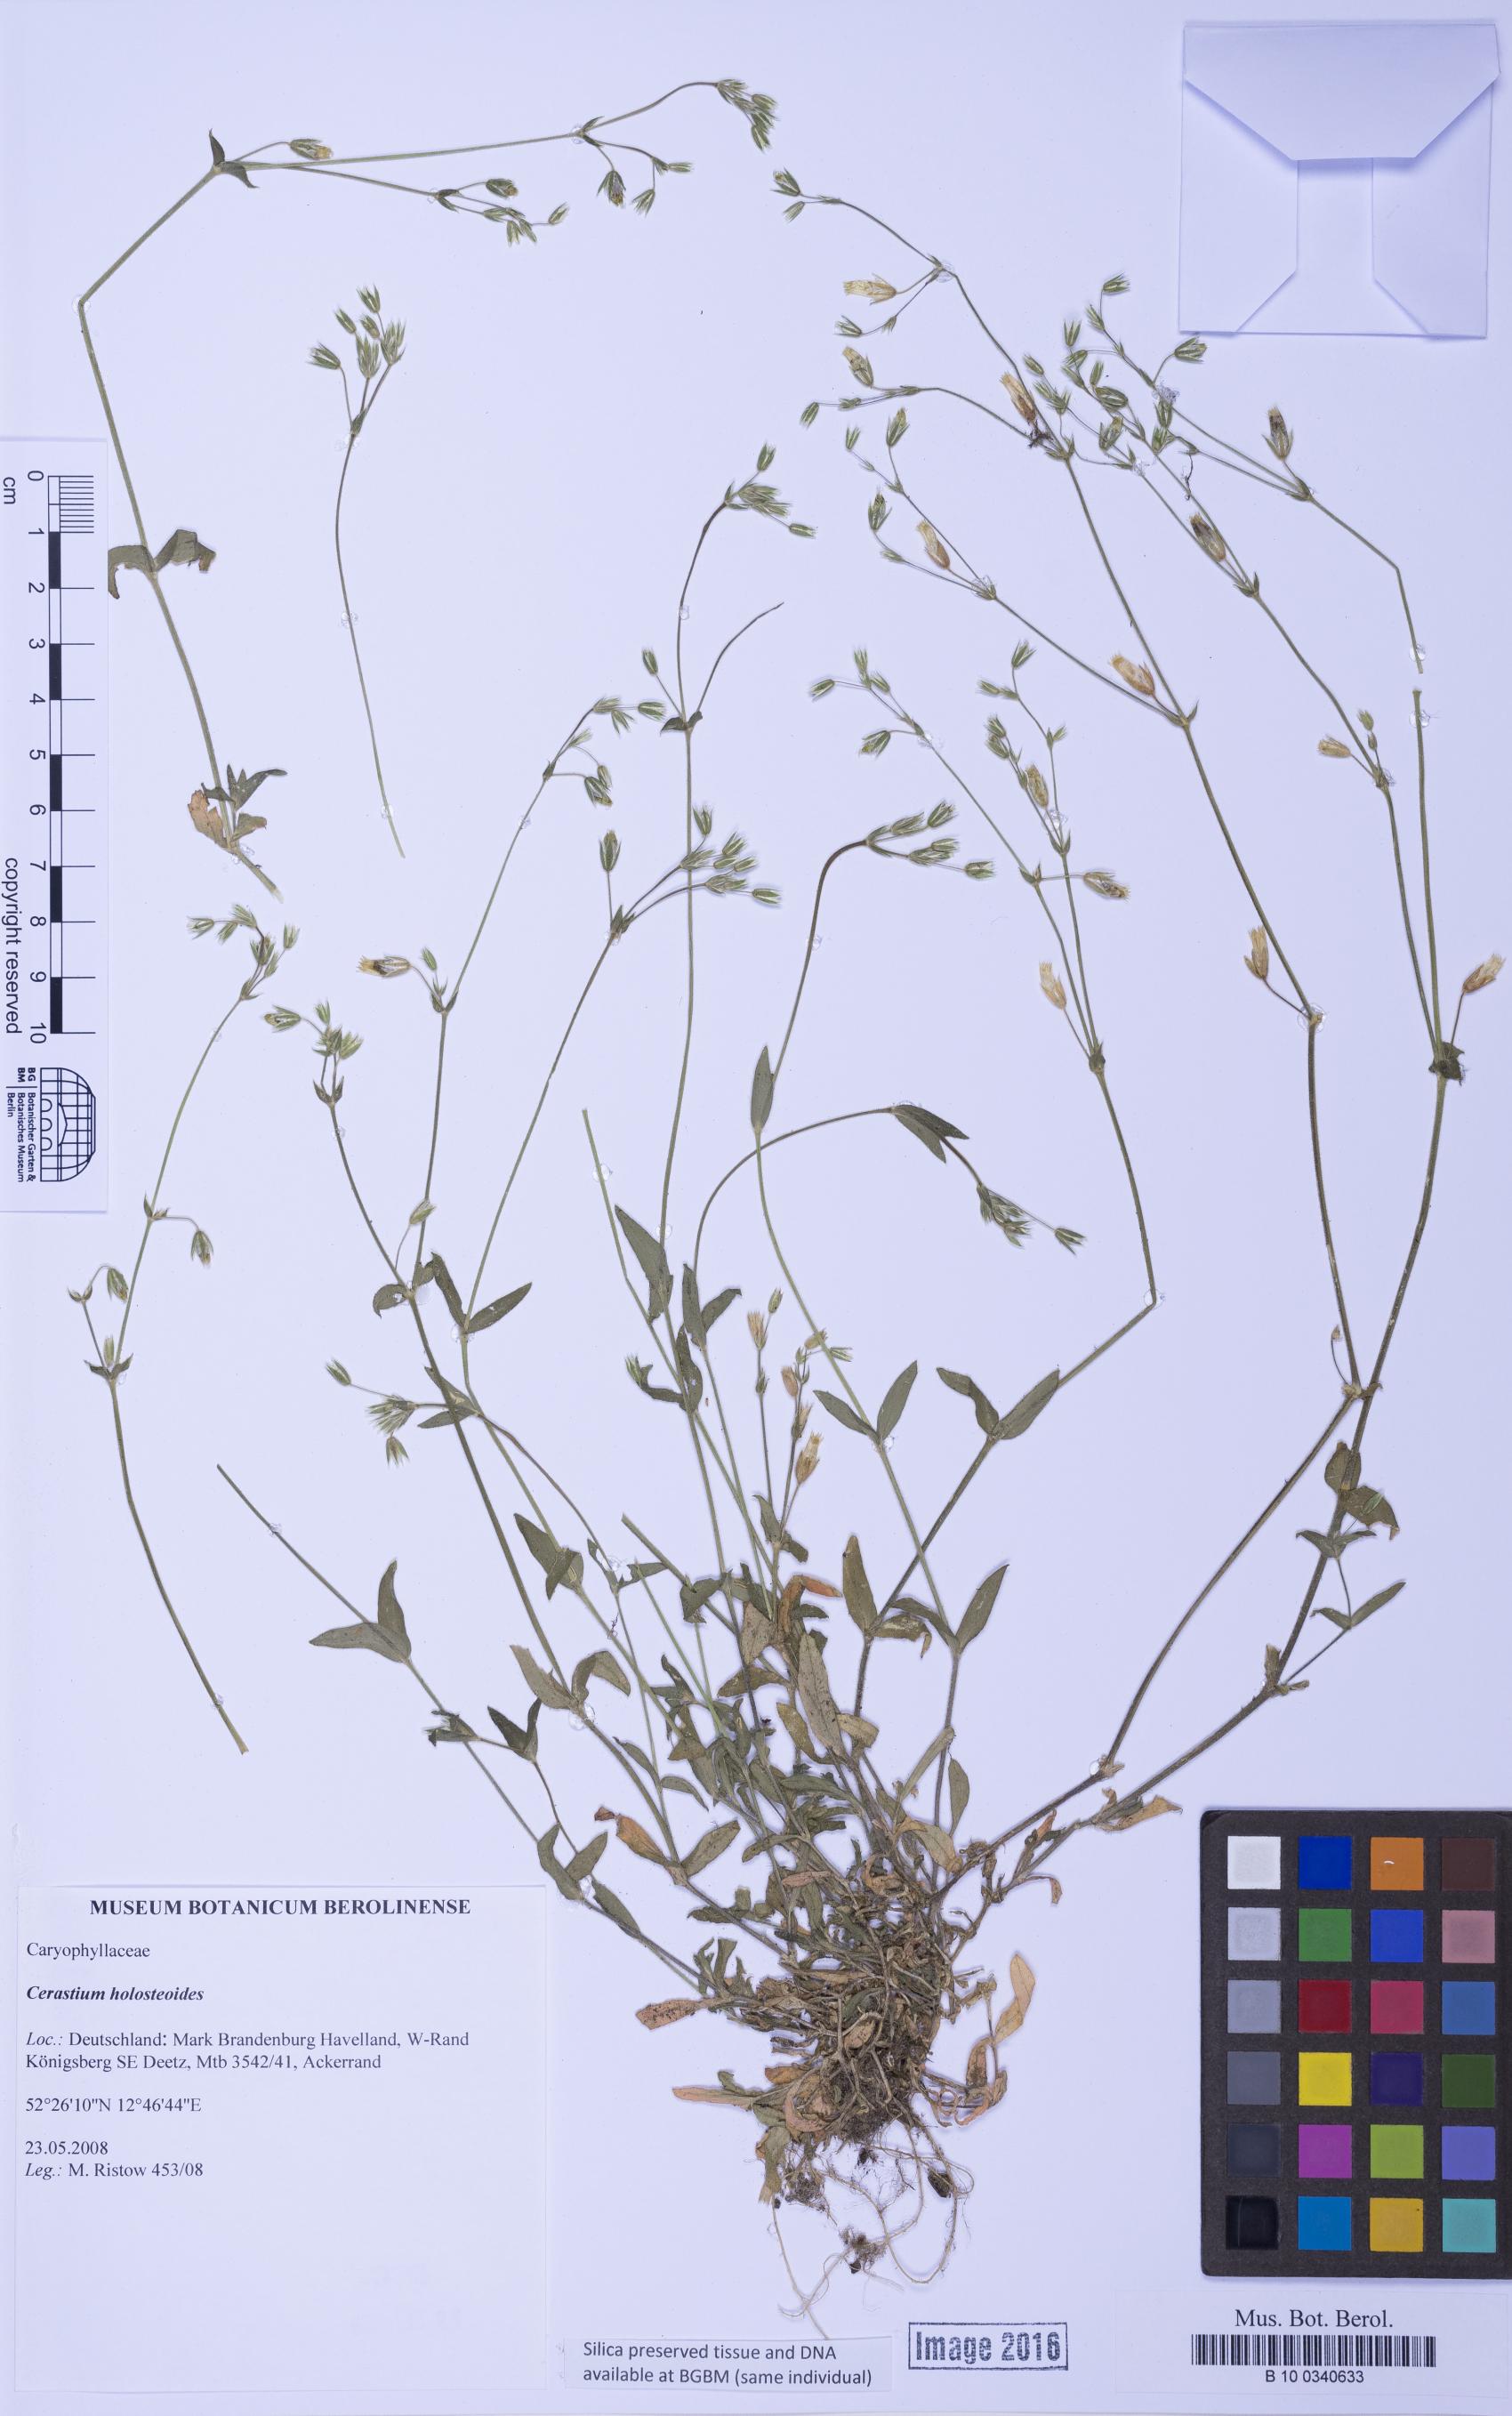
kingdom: Plantae
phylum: Tracheophyta
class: Magnoliopsida
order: Caryophyllales
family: Caryophyllaceae
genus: Cerastium
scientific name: Cerastium holosteoides
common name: Big chickweed
